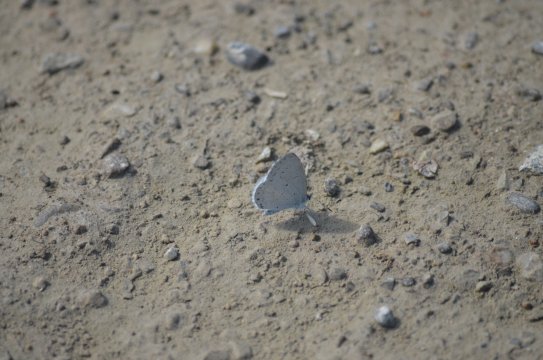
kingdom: Animalia
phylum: Arthropoda
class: Insecta
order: Lepidoptera
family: Lycaenidae
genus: Cyaniris
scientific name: Cyaniris neglecta
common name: Summer Azure
